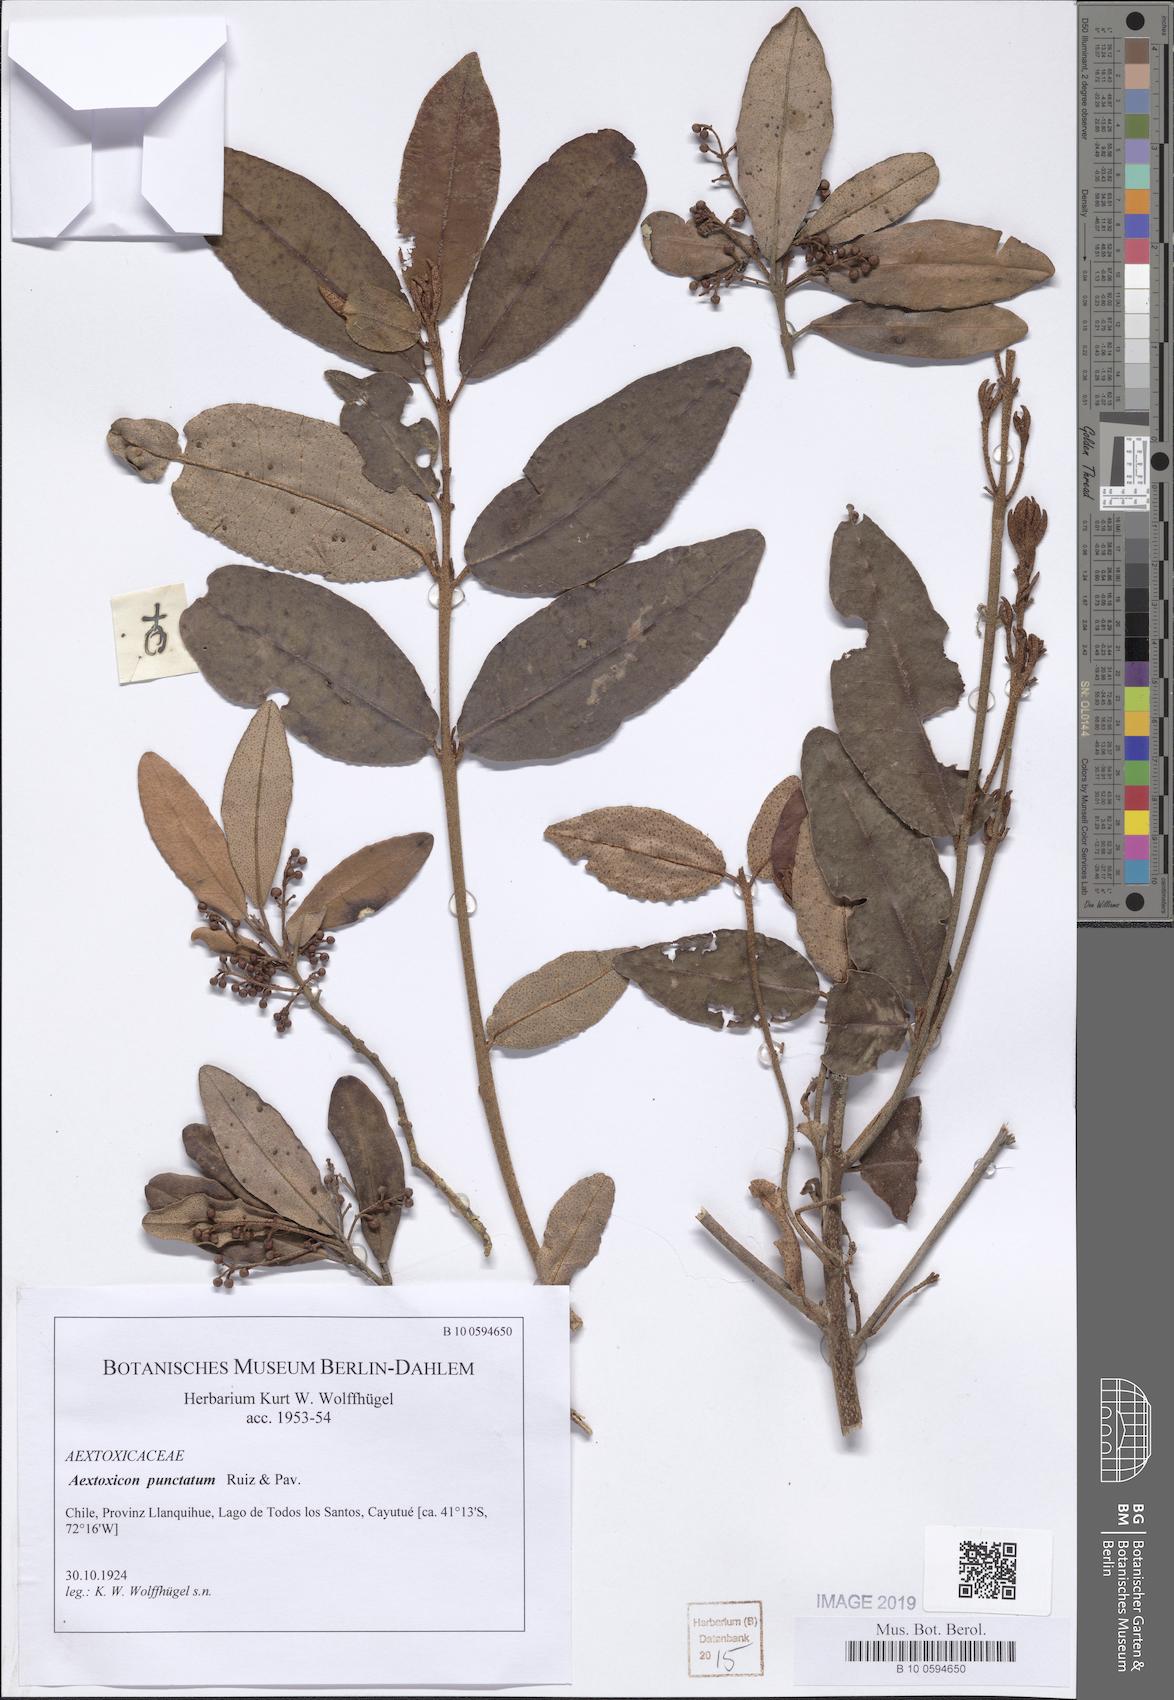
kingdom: Plantae
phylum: Tracheophyta
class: Magnoliopsida
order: Berberidopsidales
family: Aextoxicaceae
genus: Aextoxicon
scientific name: Aextoxicon punctatum
